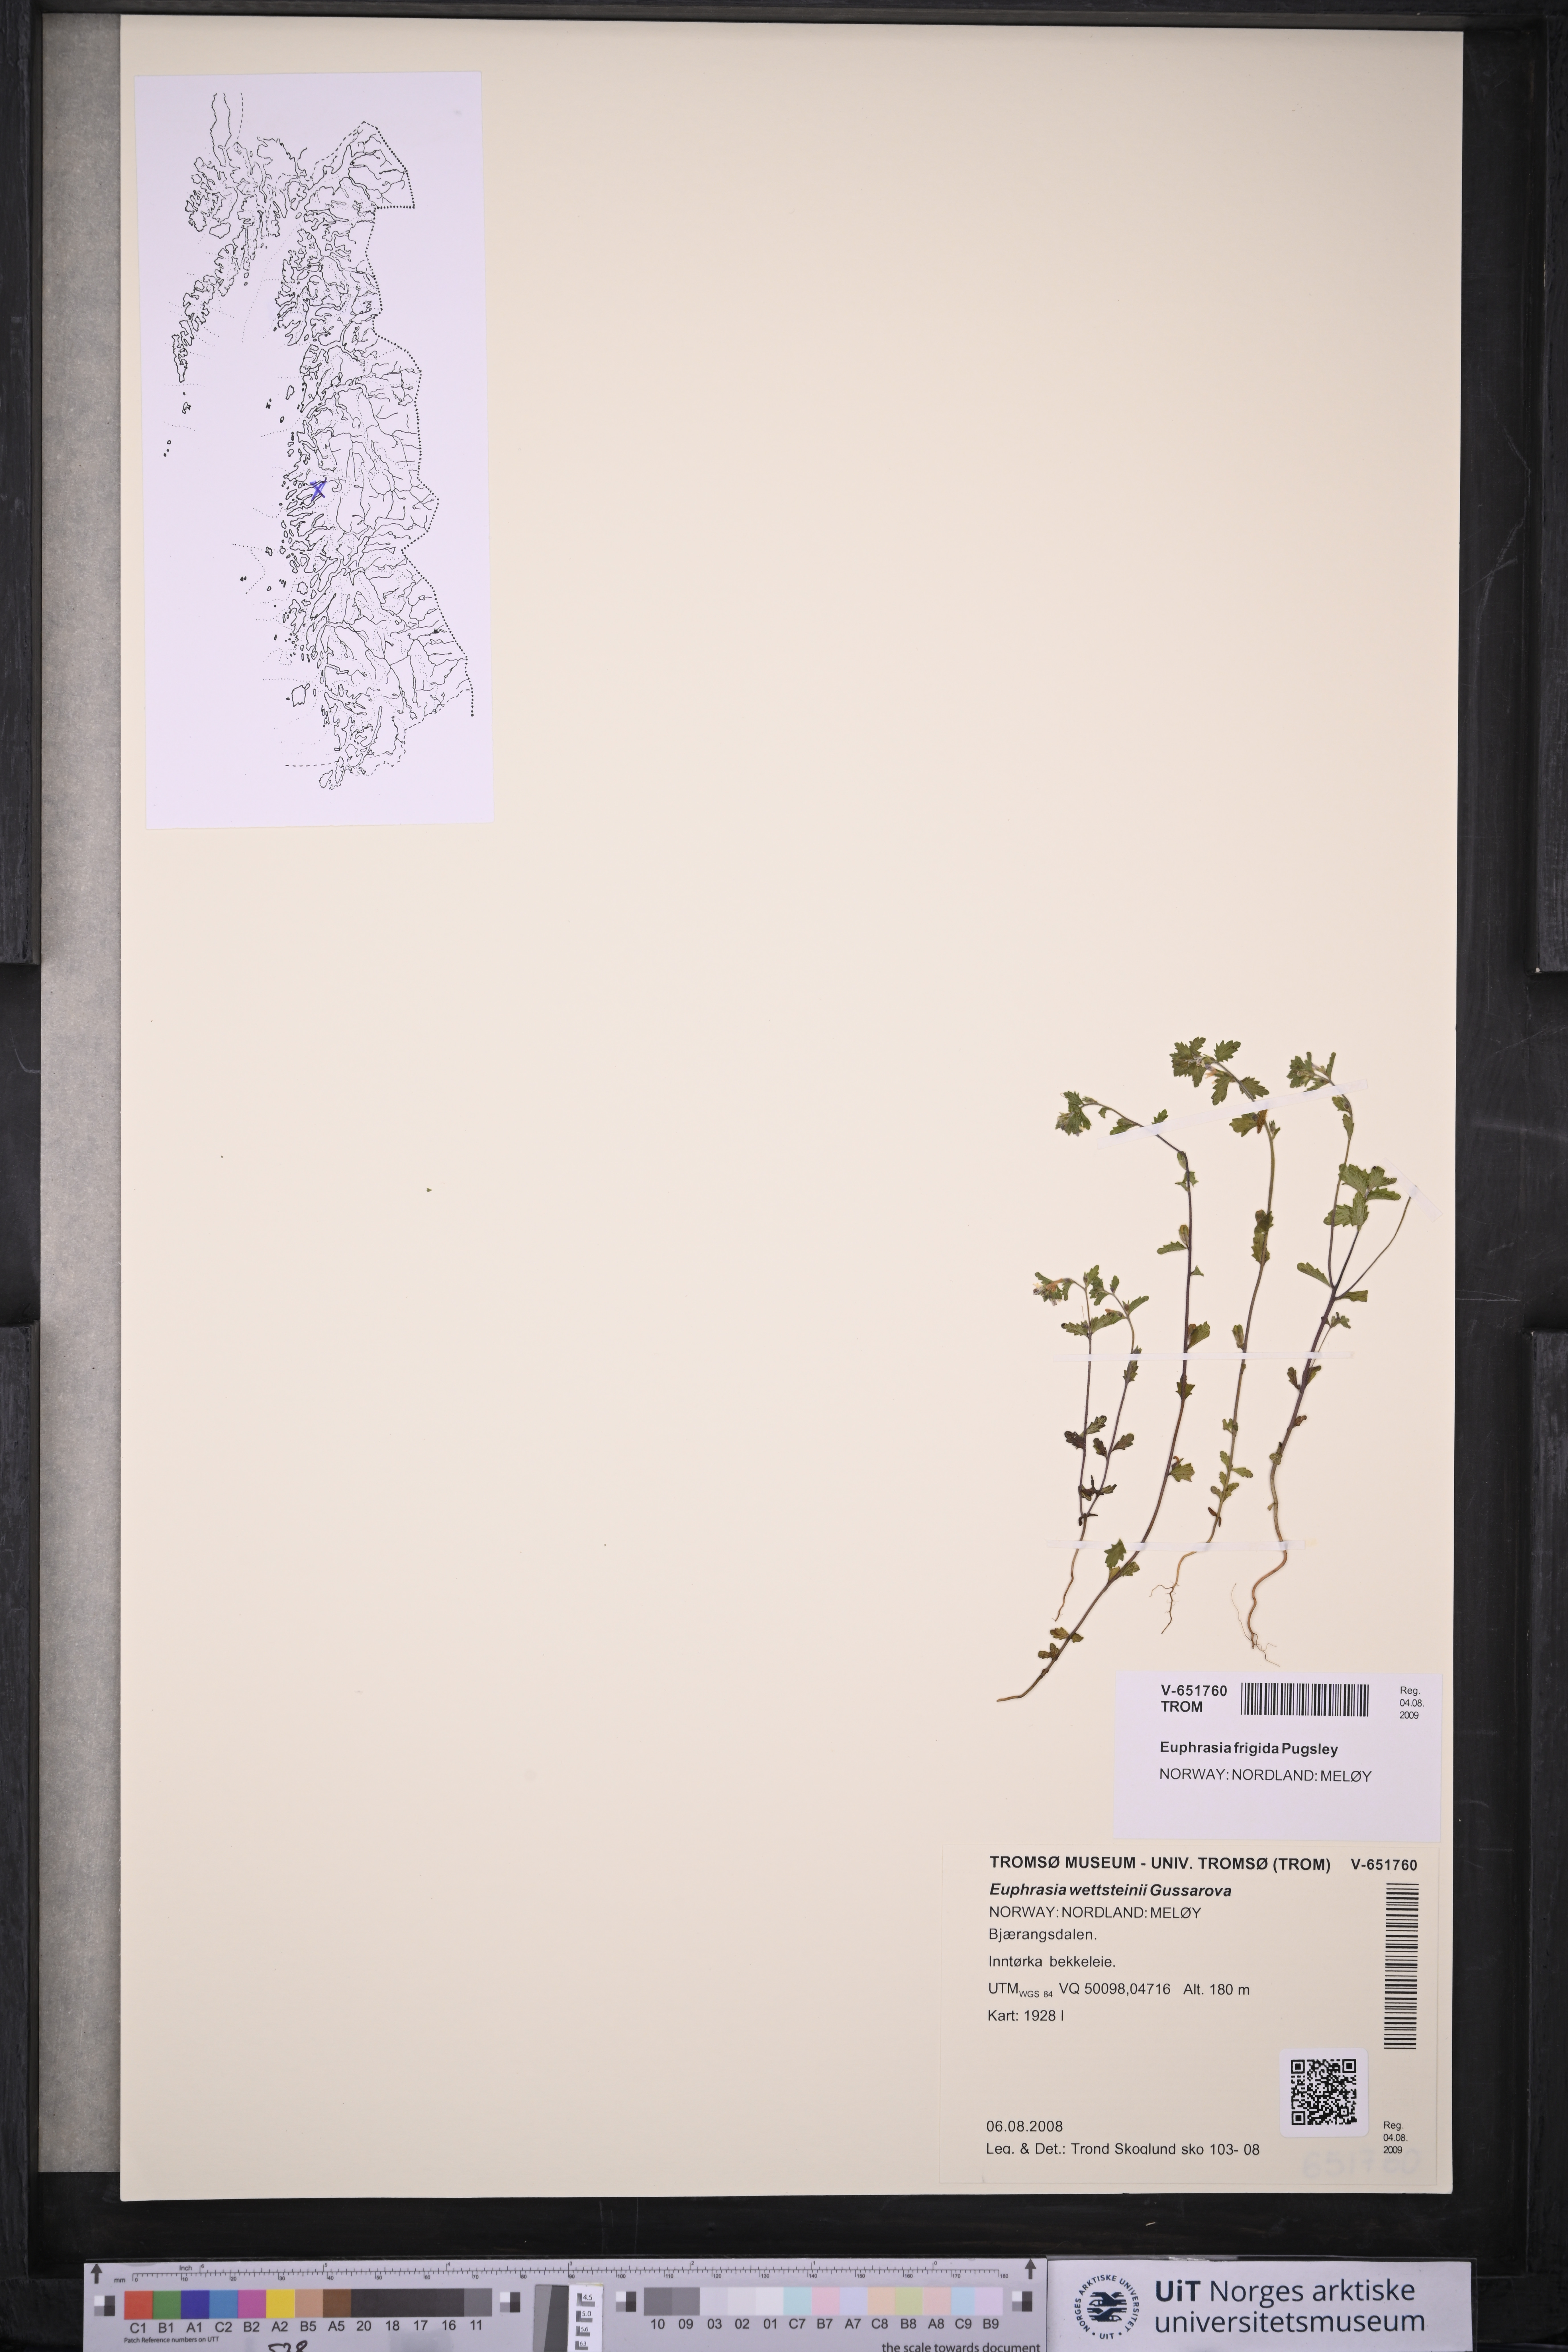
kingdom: Plantae
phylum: Tracheophyta
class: Magnoliopsida
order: Lamiales
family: Orobanchaceae
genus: Euphrasia
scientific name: Euphrasia wettsteinii
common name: Wettstein's eyebright
